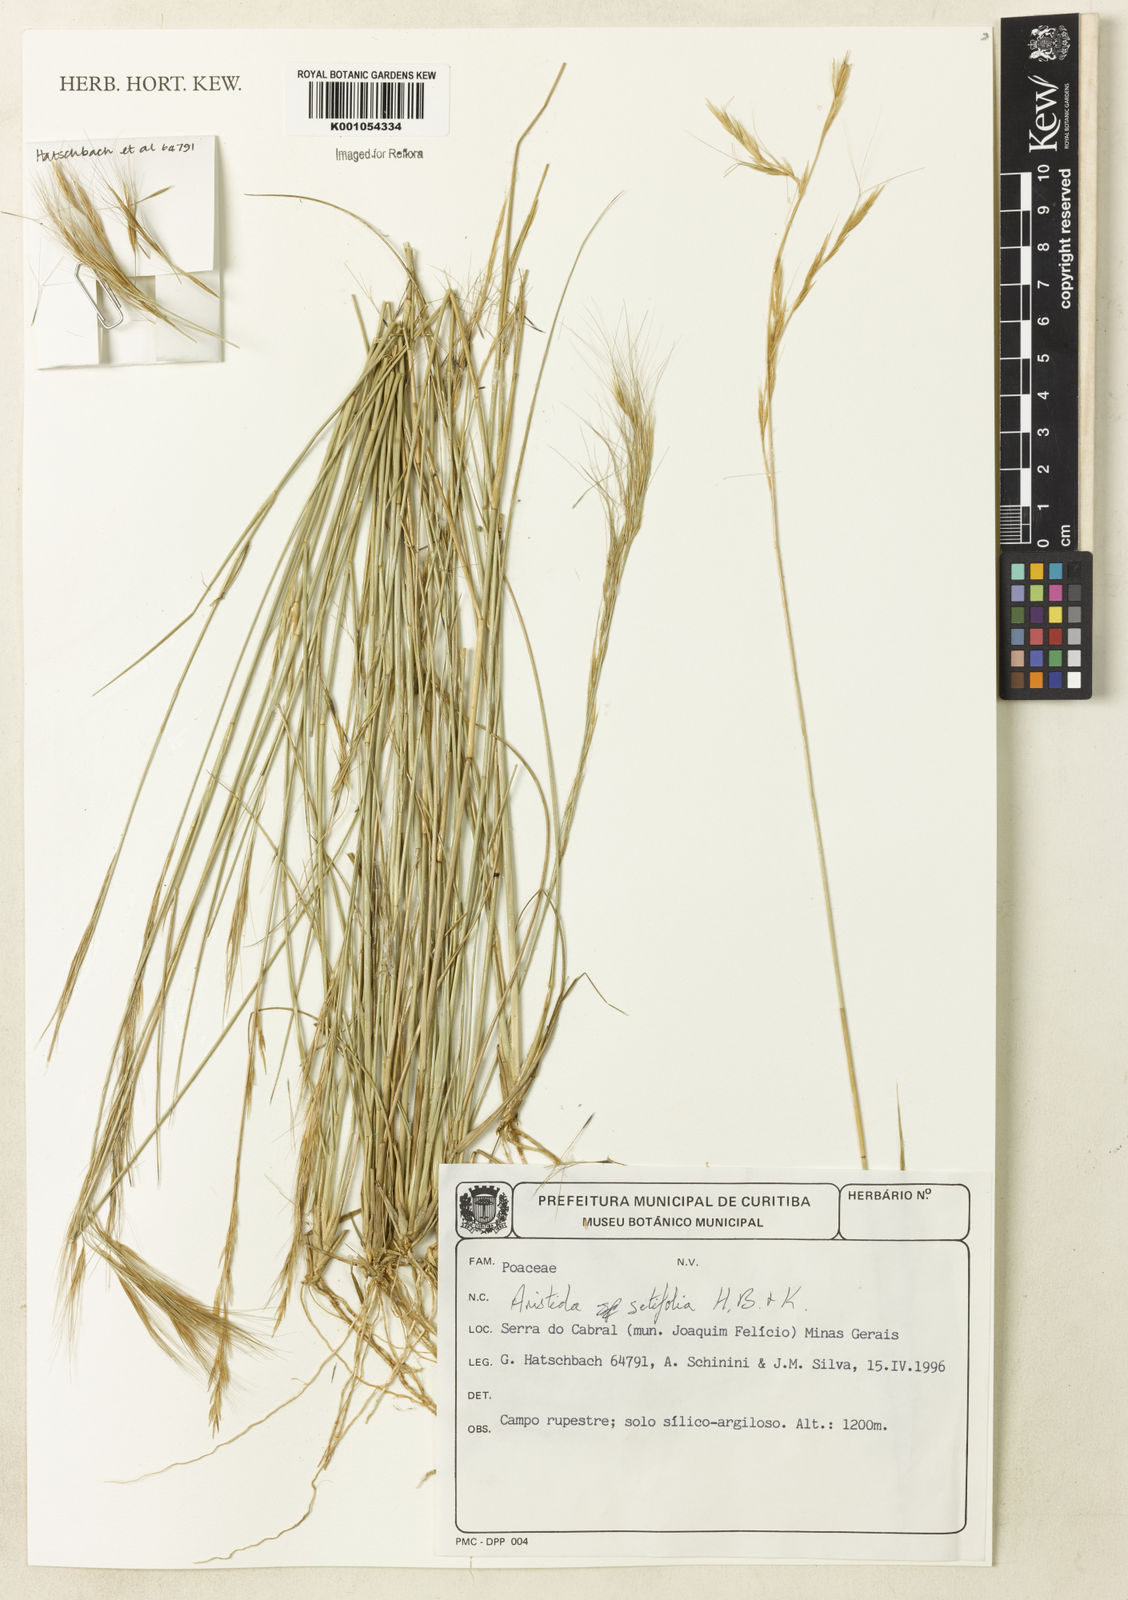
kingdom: Plantae
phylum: Tracheophyta
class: Liliopsida
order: Poales
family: Poaceae
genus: Aristida
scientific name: Aristida setifolia
